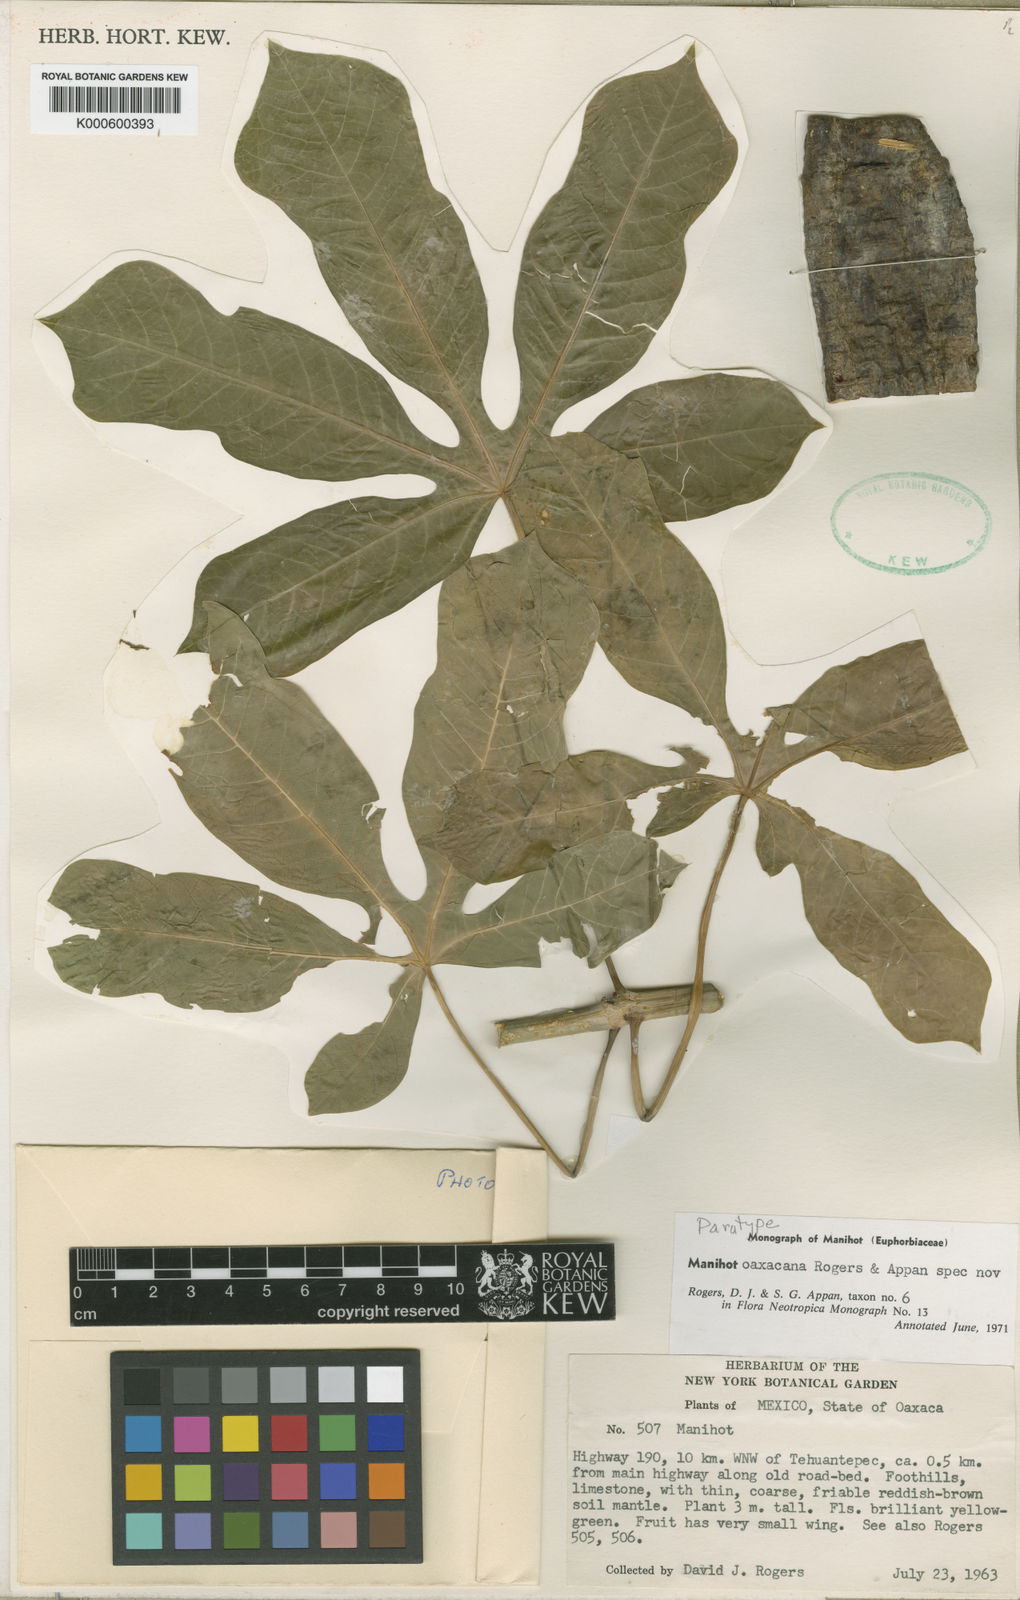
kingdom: Plantae
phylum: Tracheophyta
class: Magnoliopsida
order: Malpighiales
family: Euphorbiaceae
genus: Manihot
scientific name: Manihot oaxacana
